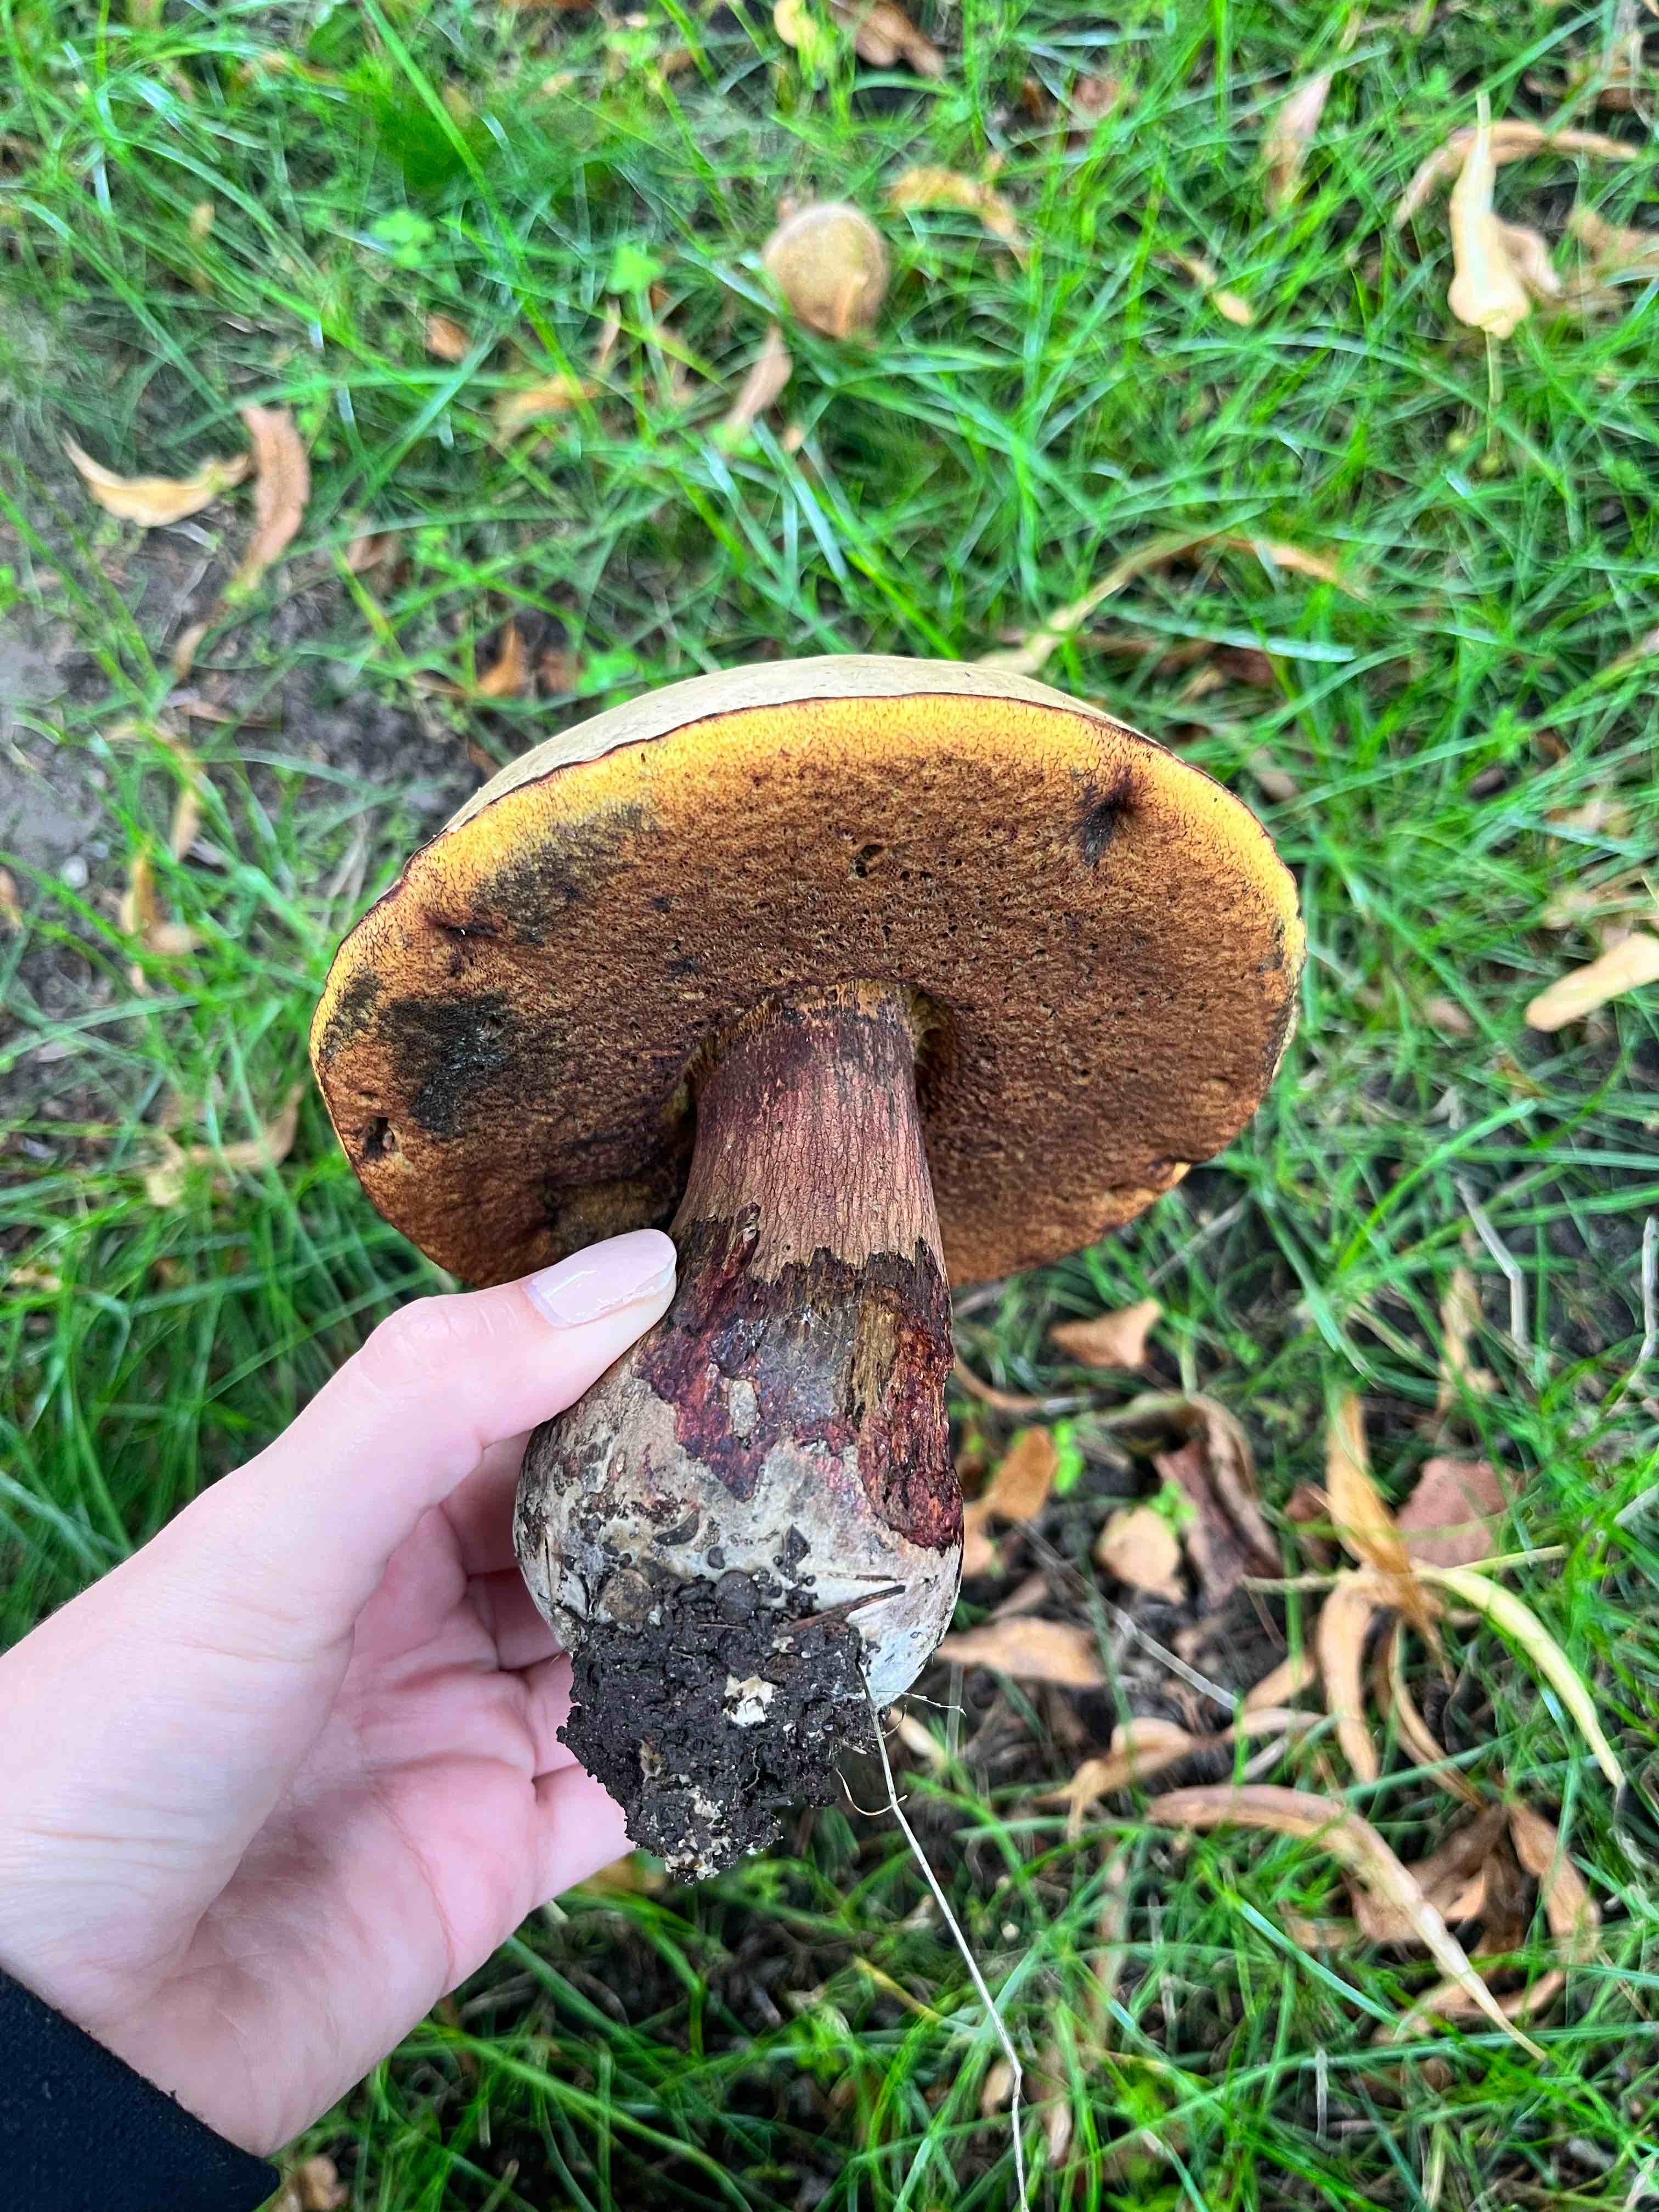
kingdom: Fungi
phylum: Basidiomycota
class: Agaricomycetes
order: Boletales
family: Boletaceae
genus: Suillellus
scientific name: Suillellus luridus
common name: netstokket indigorørhat
